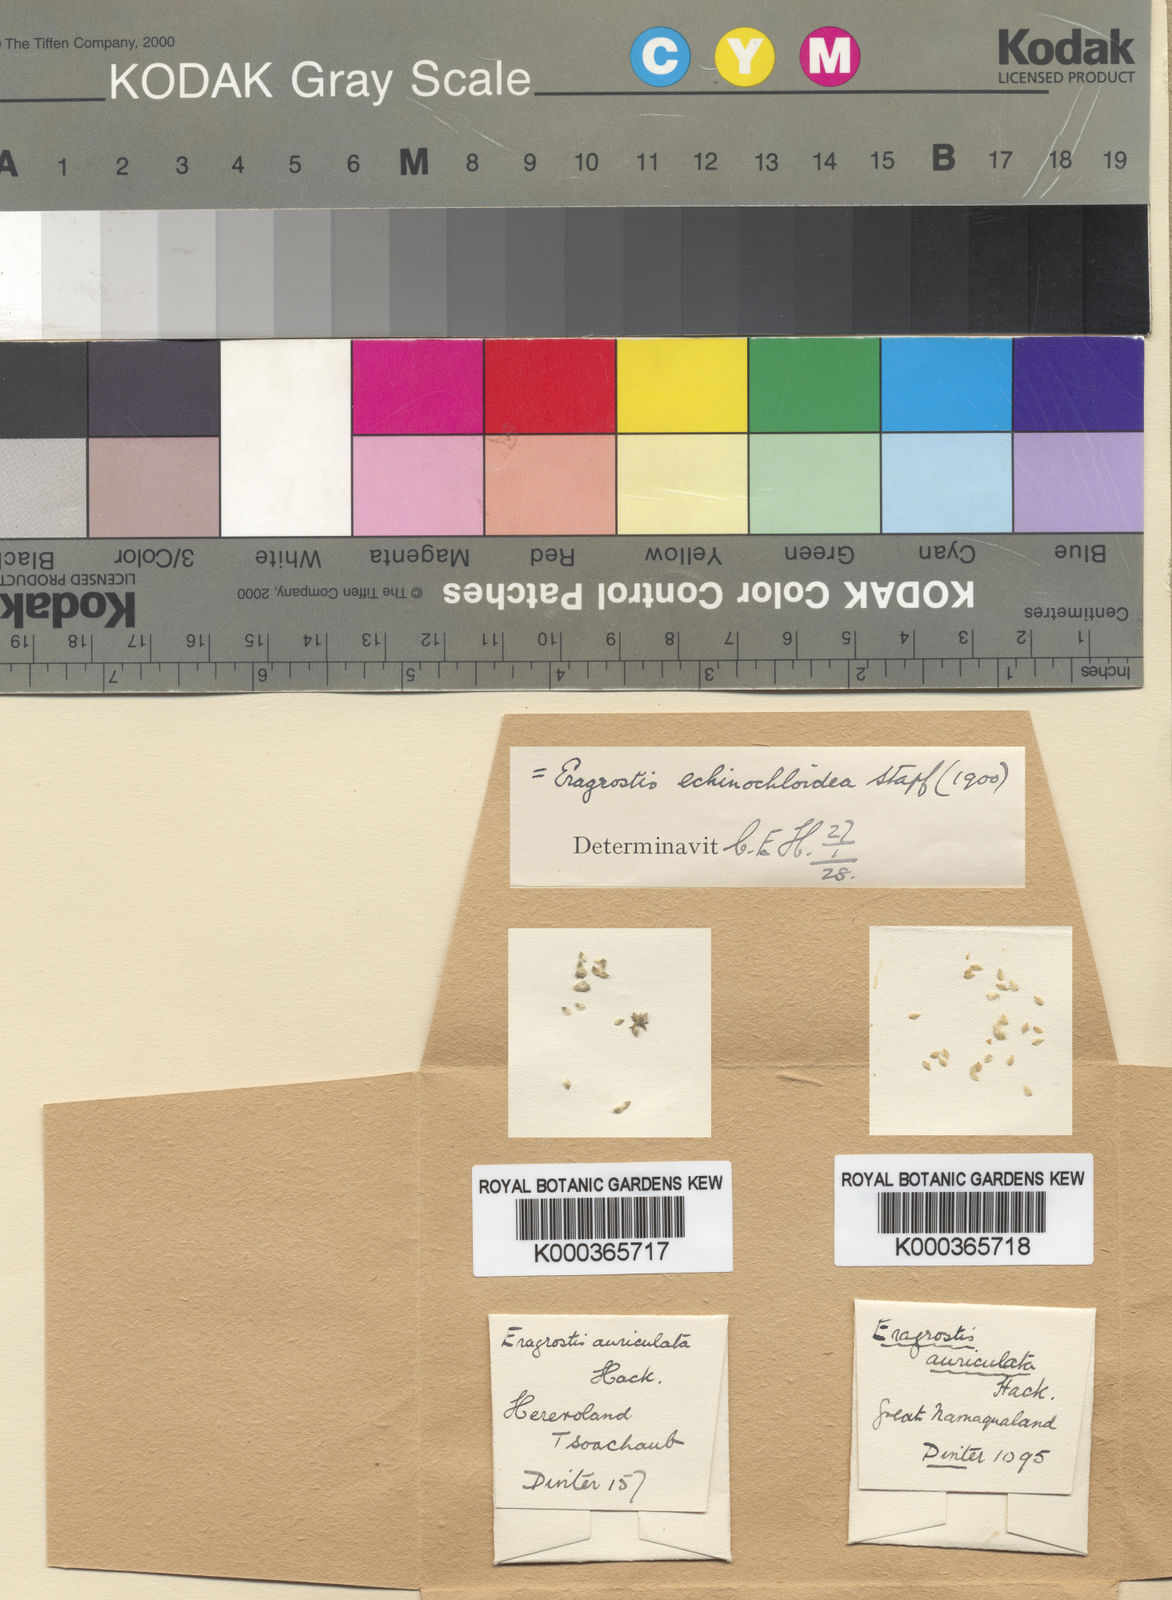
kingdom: Plantae
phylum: Tracheophyta
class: Liliopsida
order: Poales
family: Poaceae
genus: Eragrostis
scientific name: Eragrostis echinochloidea
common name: African lovegrass
